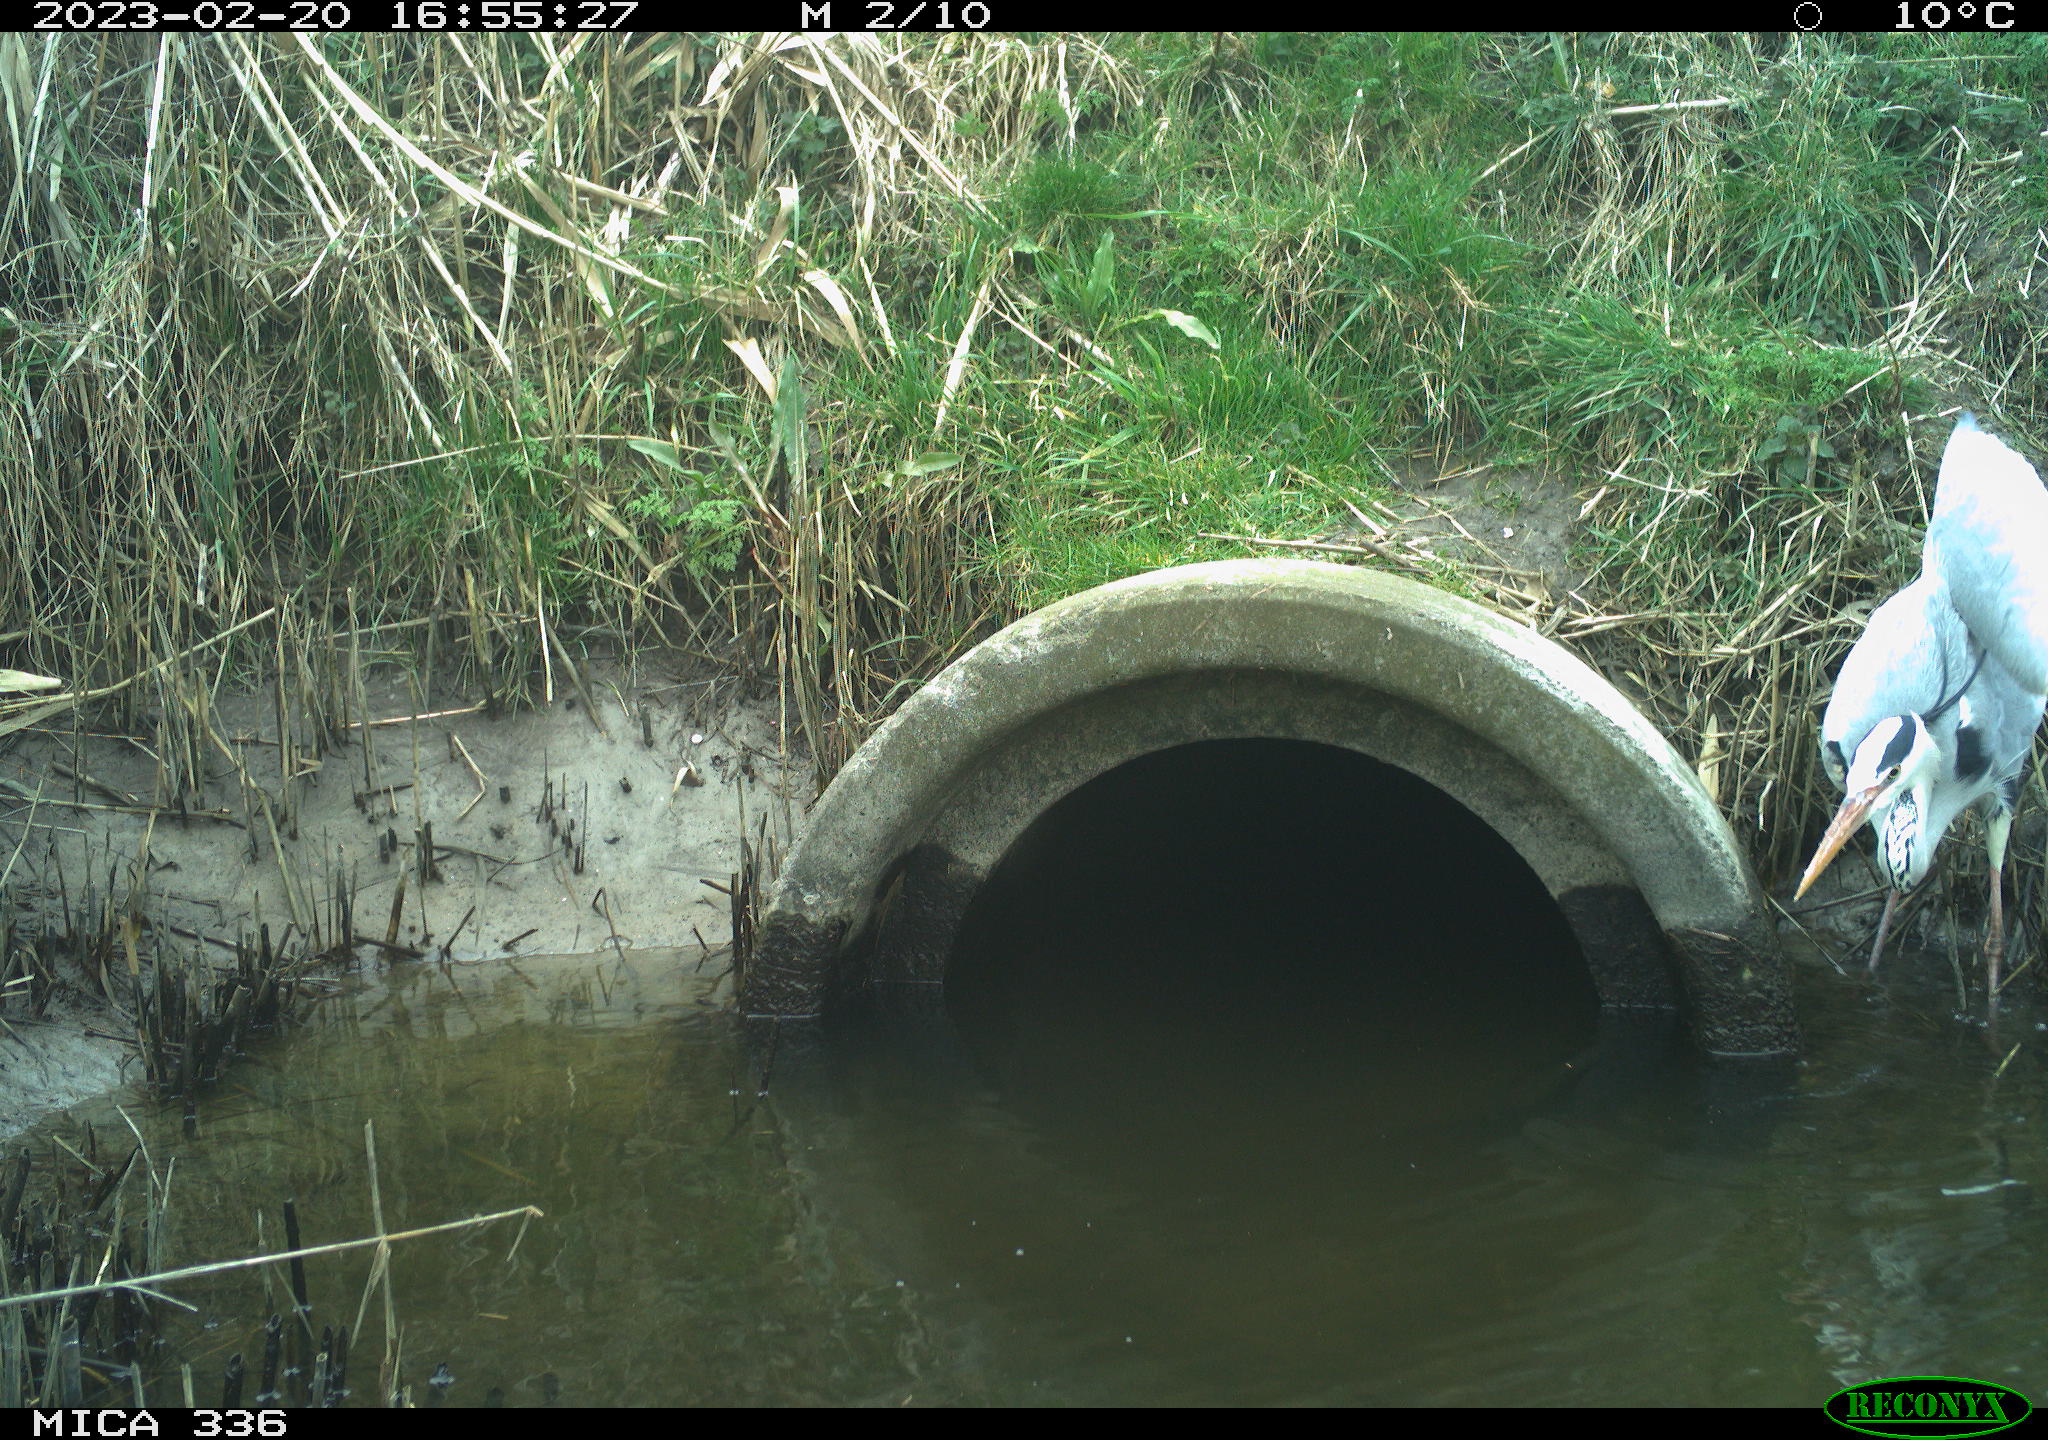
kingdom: Animalia
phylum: Chordata
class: Aves
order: Pelecaniformes
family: Ardeidae
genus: Ardea
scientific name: Ardea cinerea
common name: Grey heron
